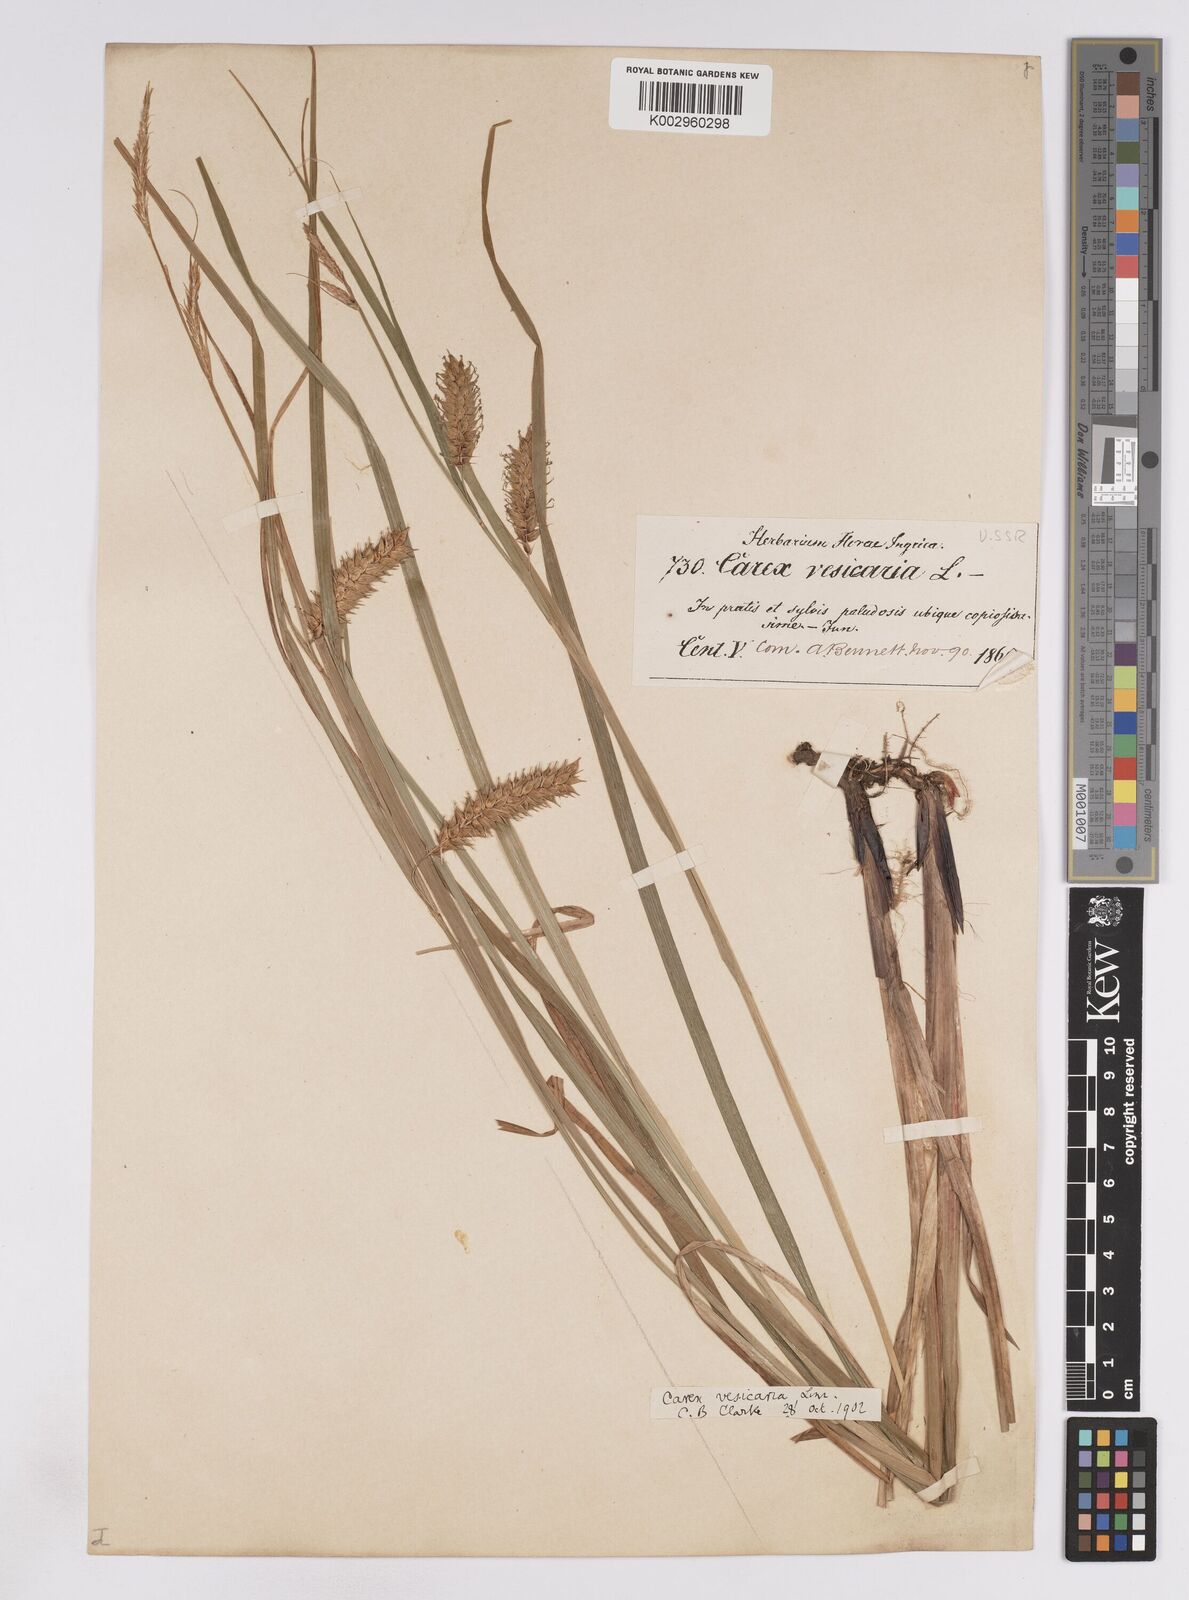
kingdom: Plantae
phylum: Tracheophyta
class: Liliopsida
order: Poales
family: Cyperaceae
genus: Carex
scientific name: Carex vesicaria
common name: Bladder-sedge
